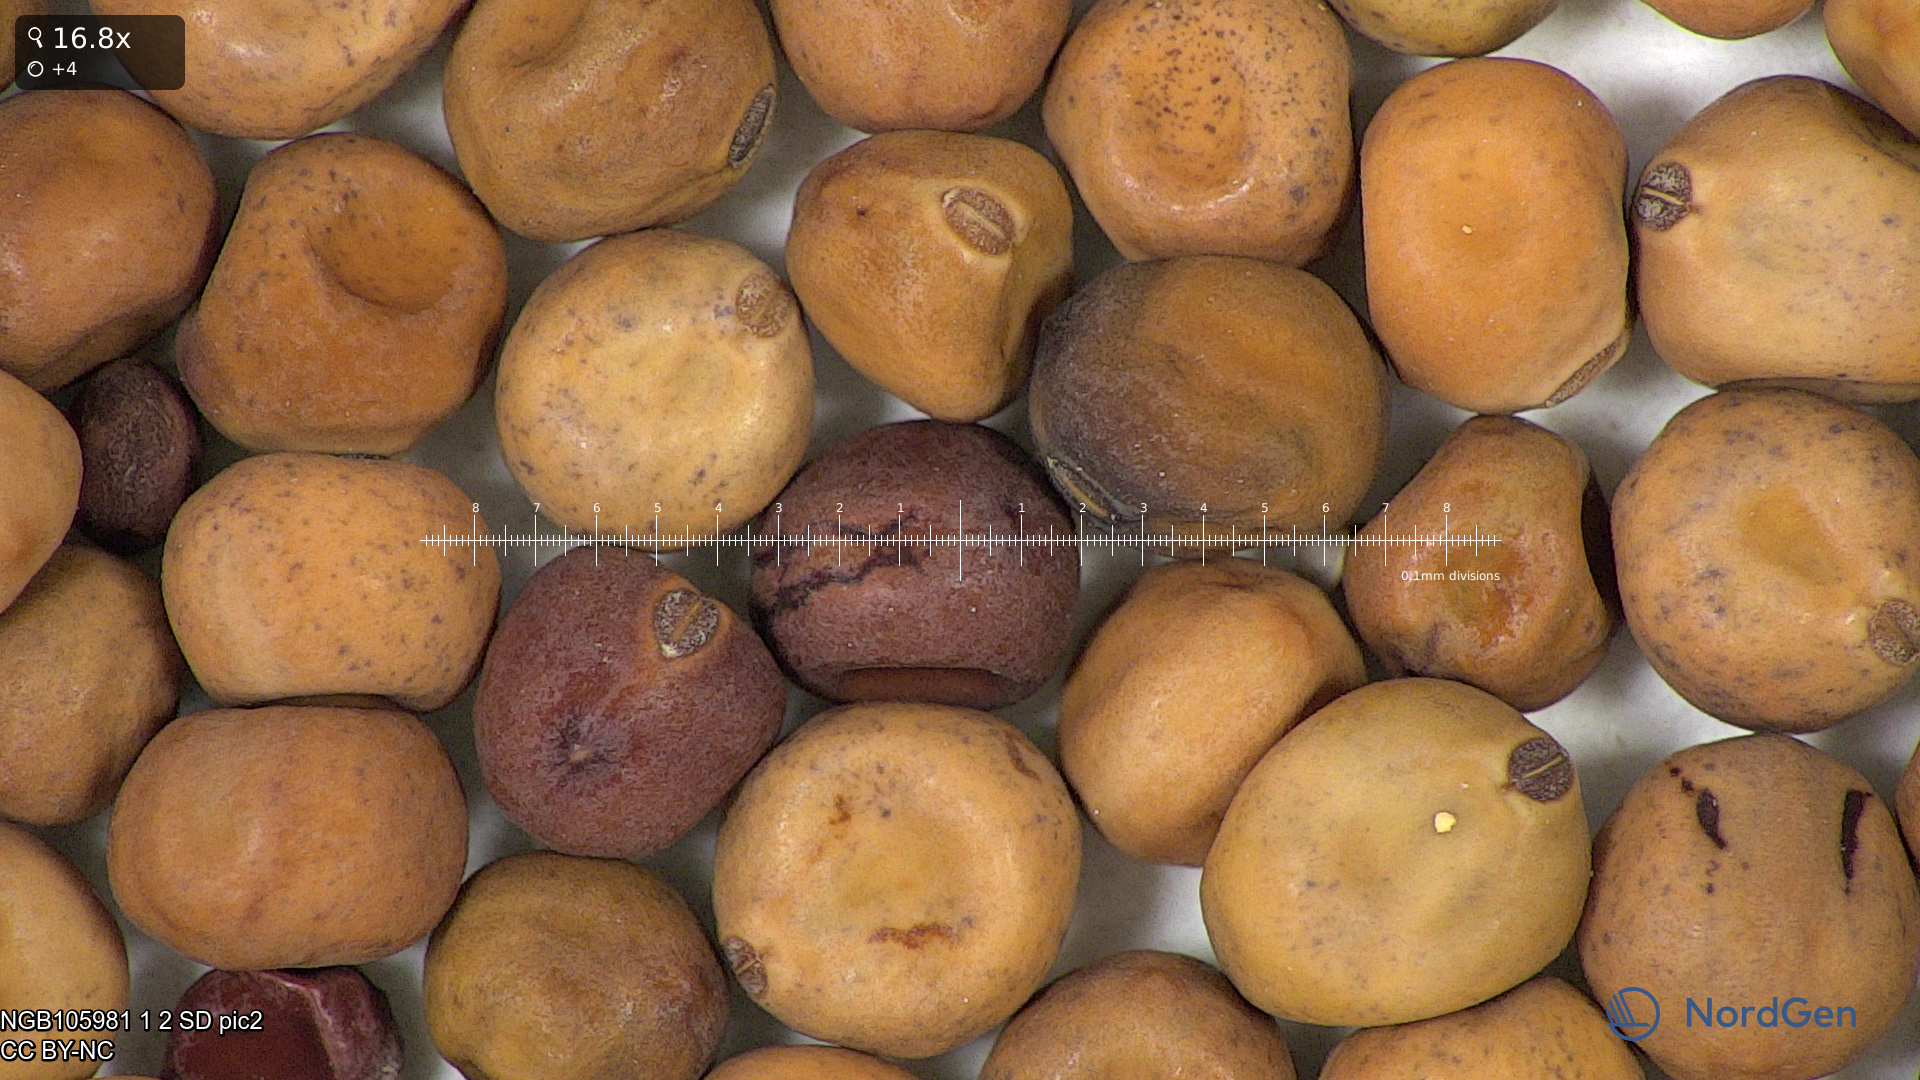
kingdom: Plantae
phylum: Tracheophyta
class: Magnoliopsida
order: Fabales
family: Fabaceae
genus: Lathyrus
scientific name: Lathyrus oleraceus
